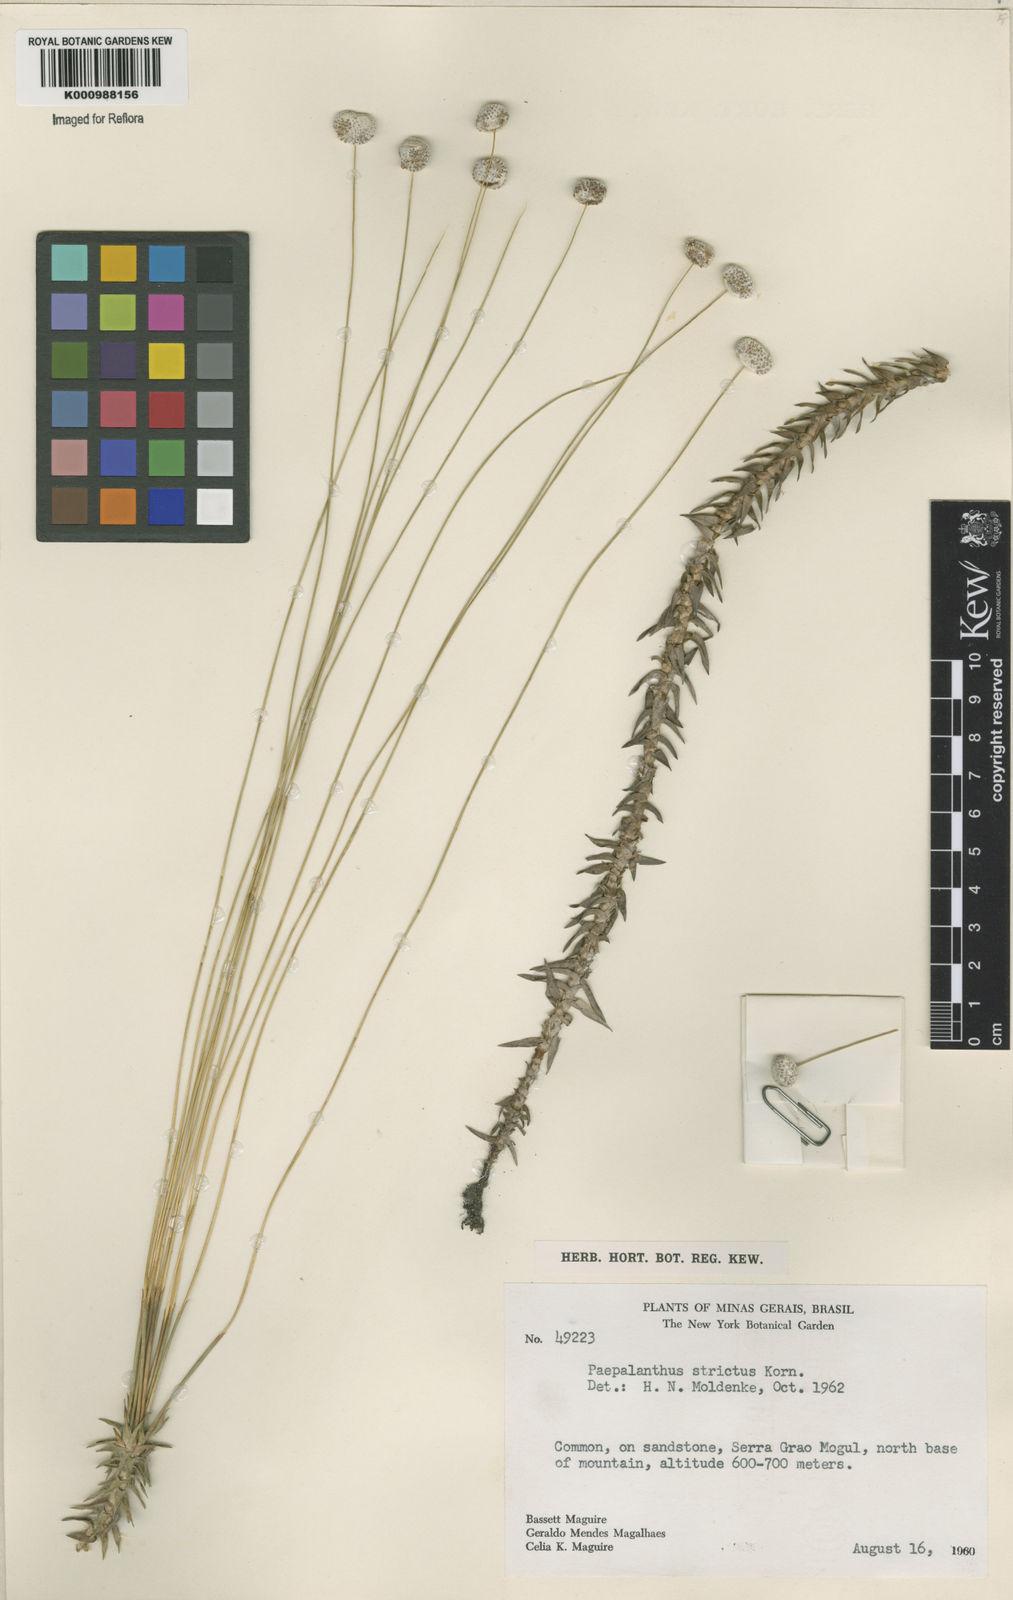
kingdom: Plantae
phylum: Tracheophyta
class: Liliopsida
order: Poales
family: Eriocaulaceae
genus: Paepalanthus
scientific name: Paepalanthus
